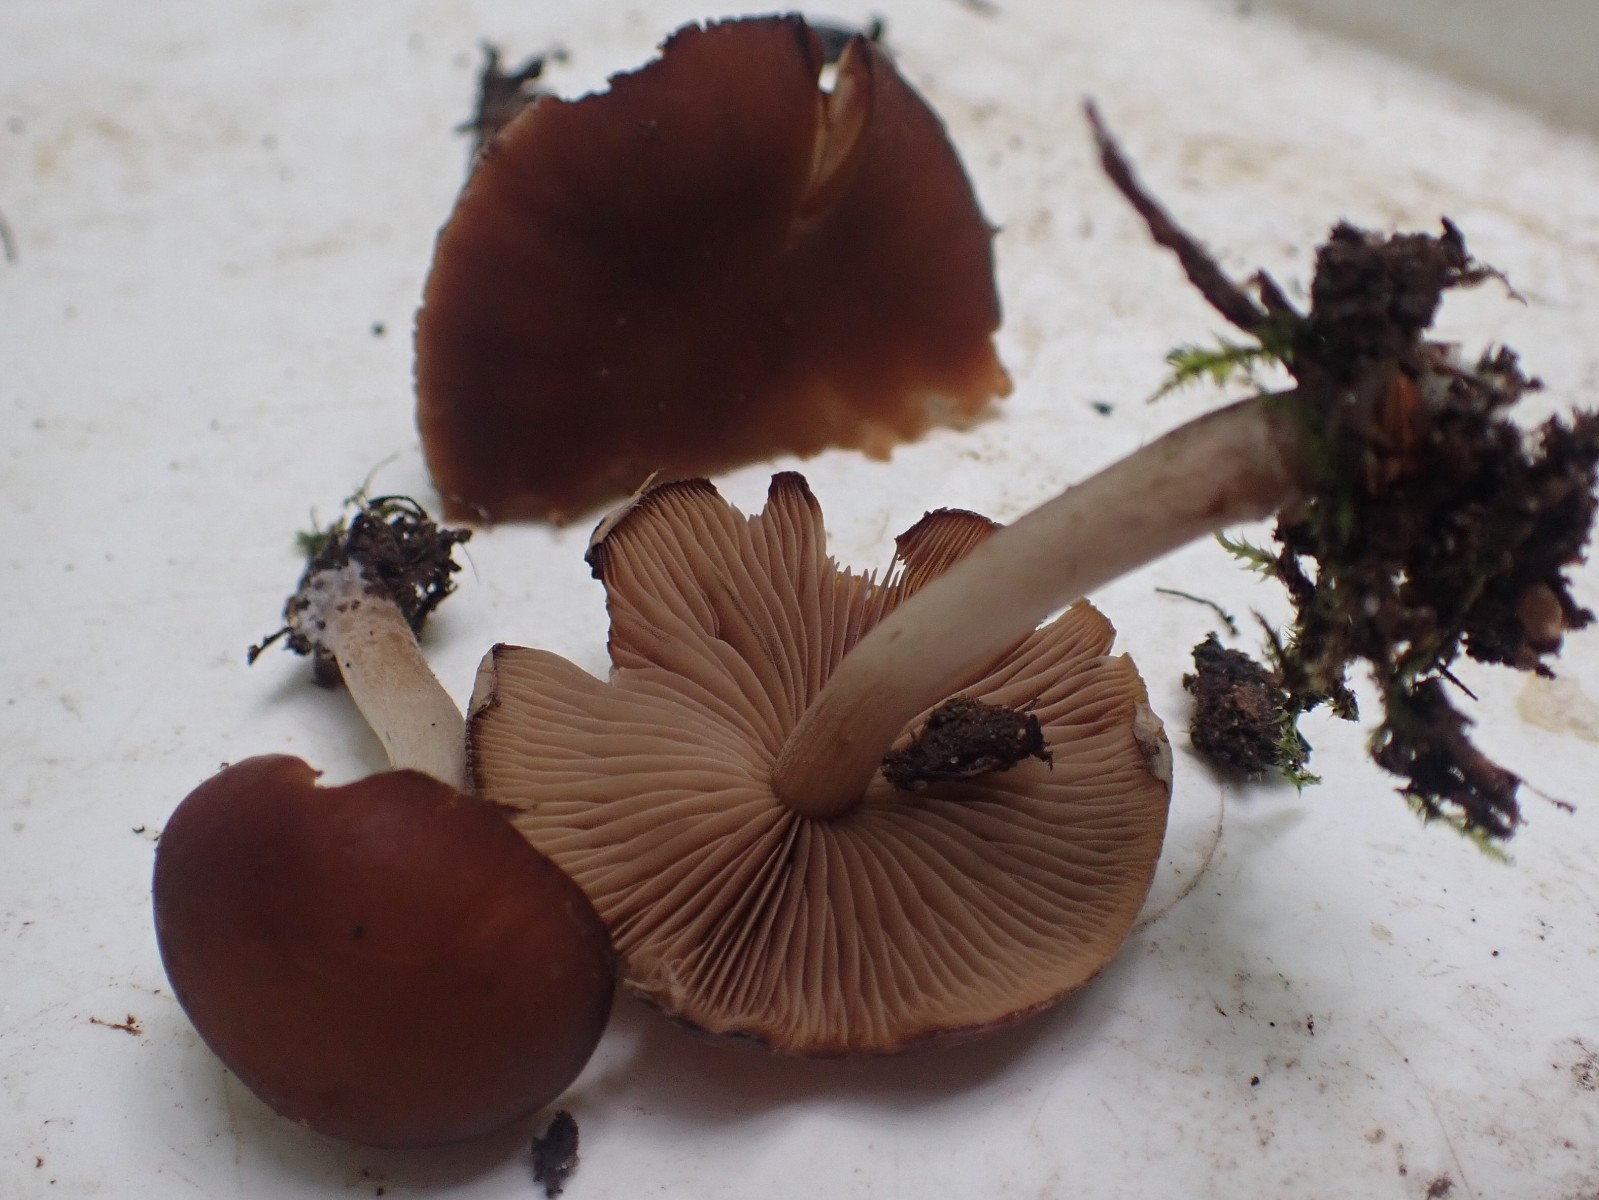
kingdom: Fungi
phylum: Basidiomycota
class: Agaricomycetes
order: Agaricales
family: Psathyrellaceae
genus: Psathyrella
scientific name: Psathyrella piluliformis
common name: lysstokket mørkhat
